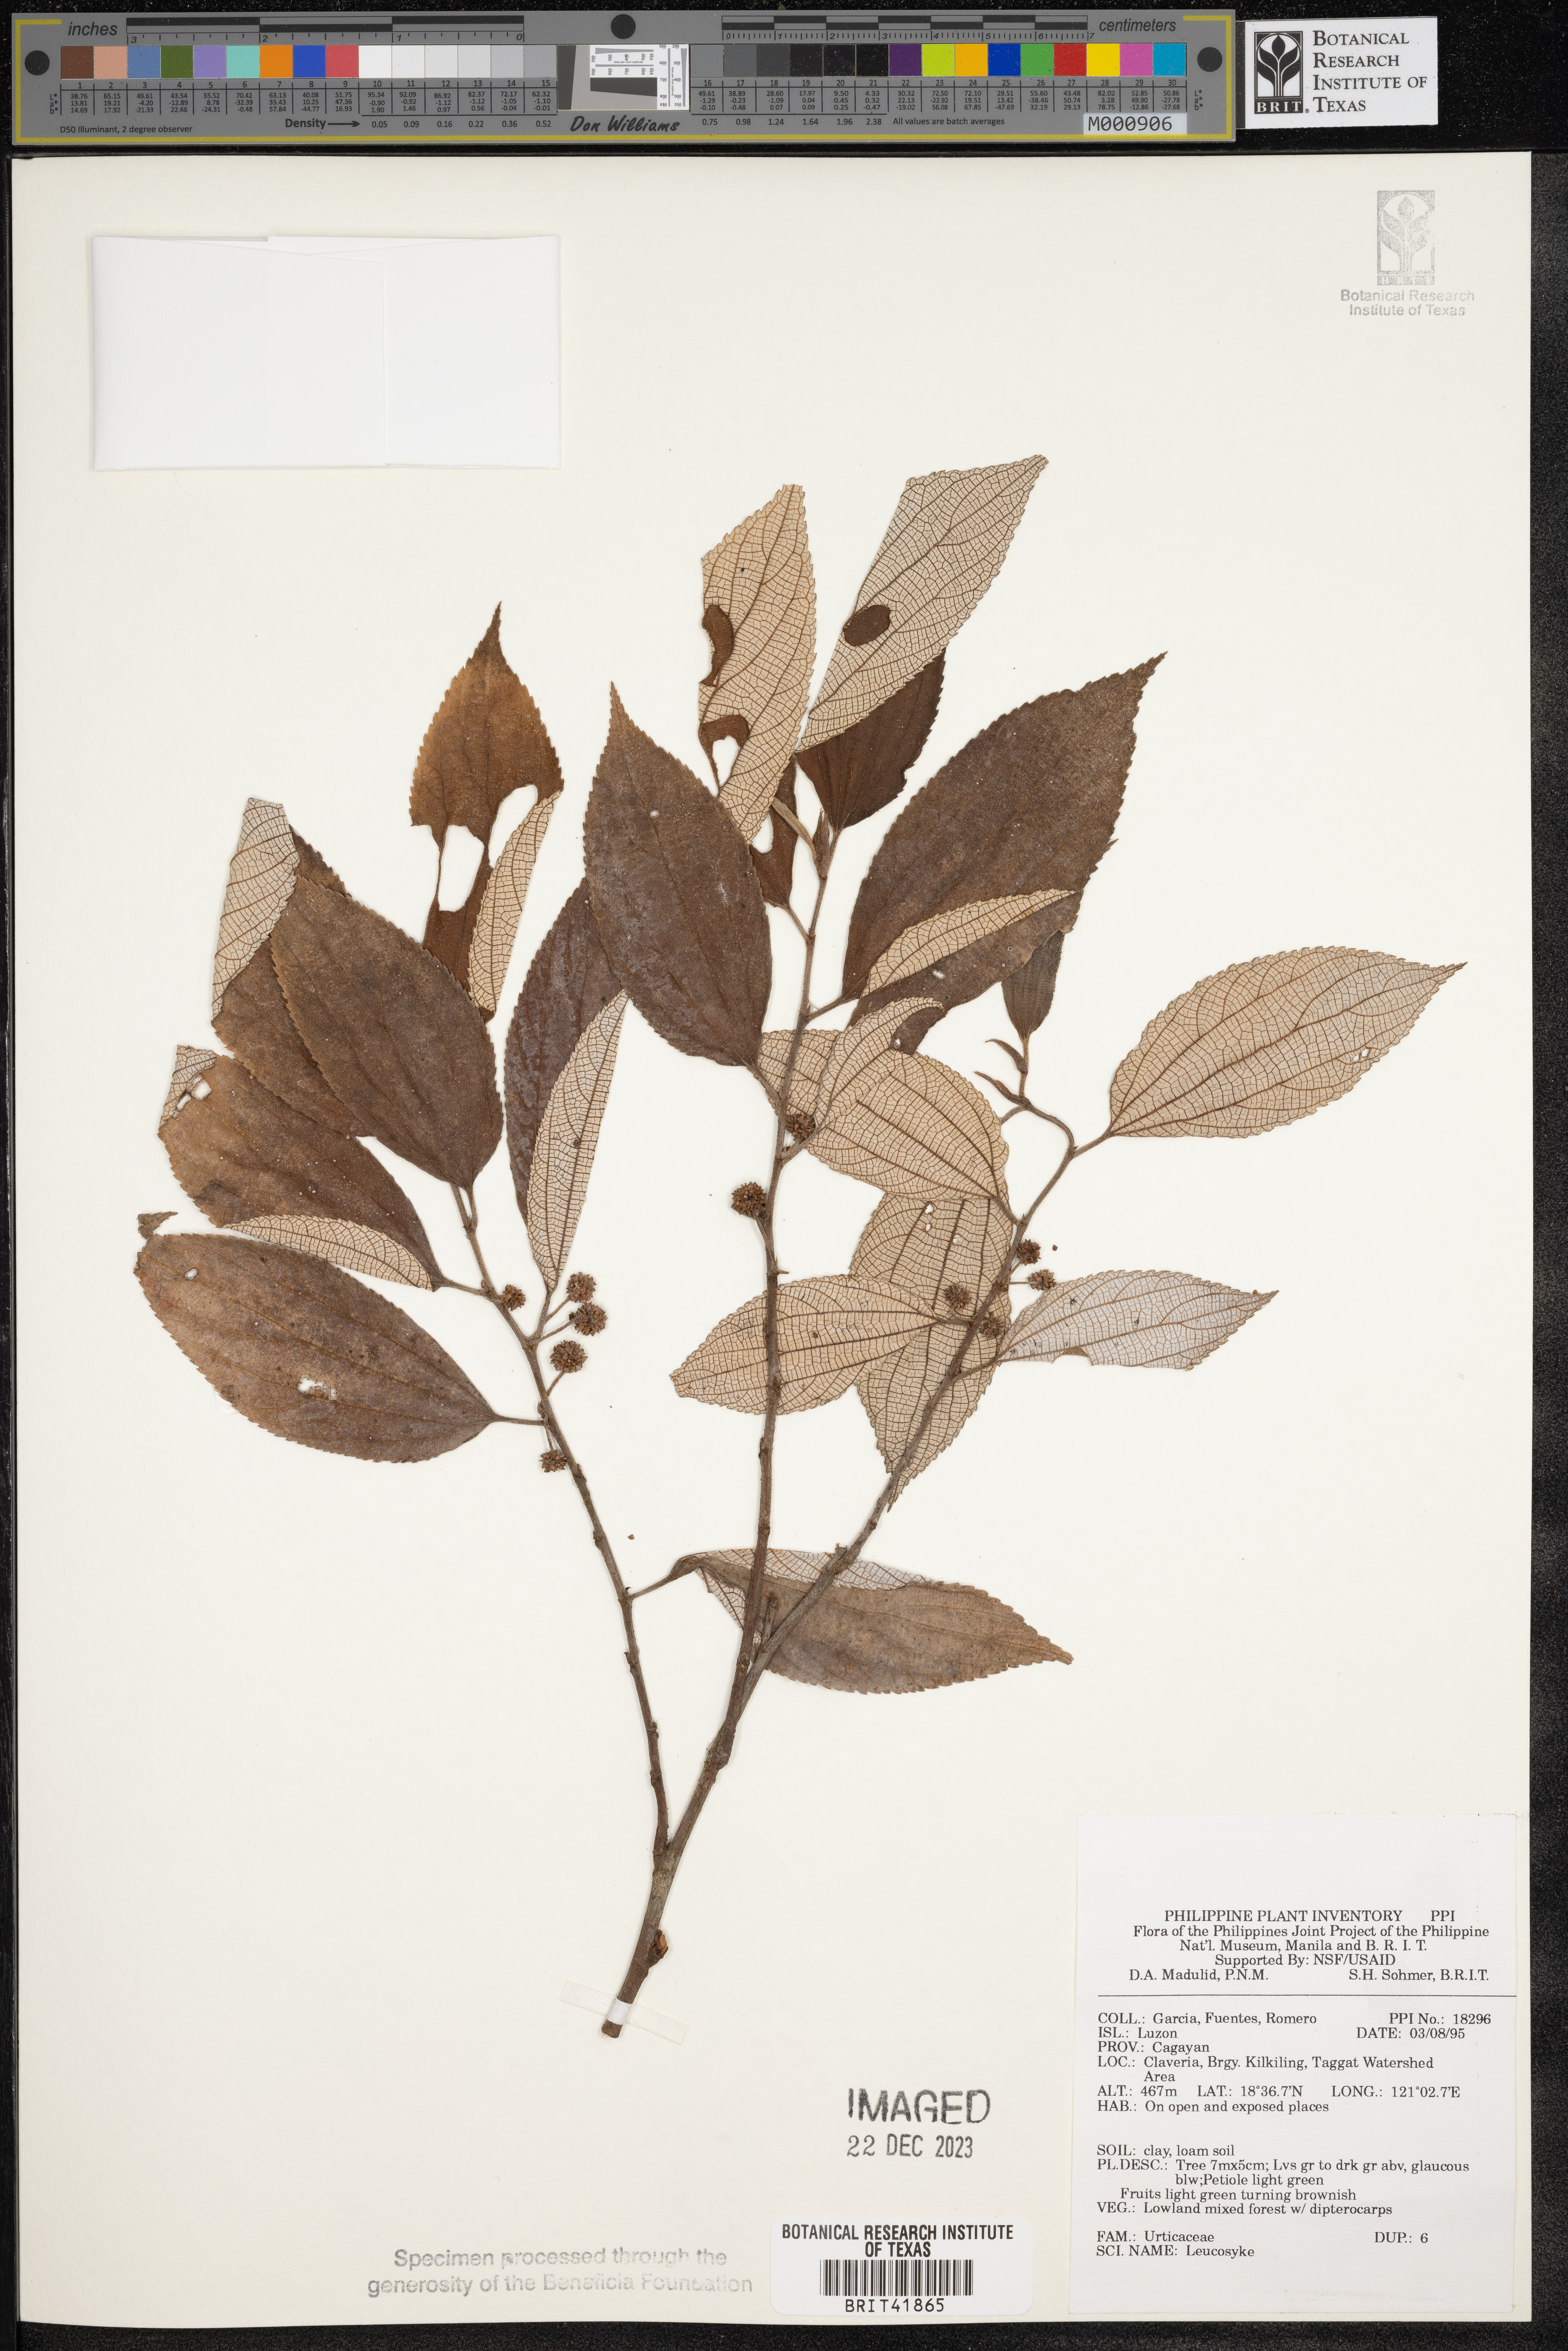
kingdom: Plantae
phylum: Tracheophyta
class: Magnoliopsida
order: Rosales
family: Urticaceae
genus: Leucosyke
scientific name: Leucosyke
